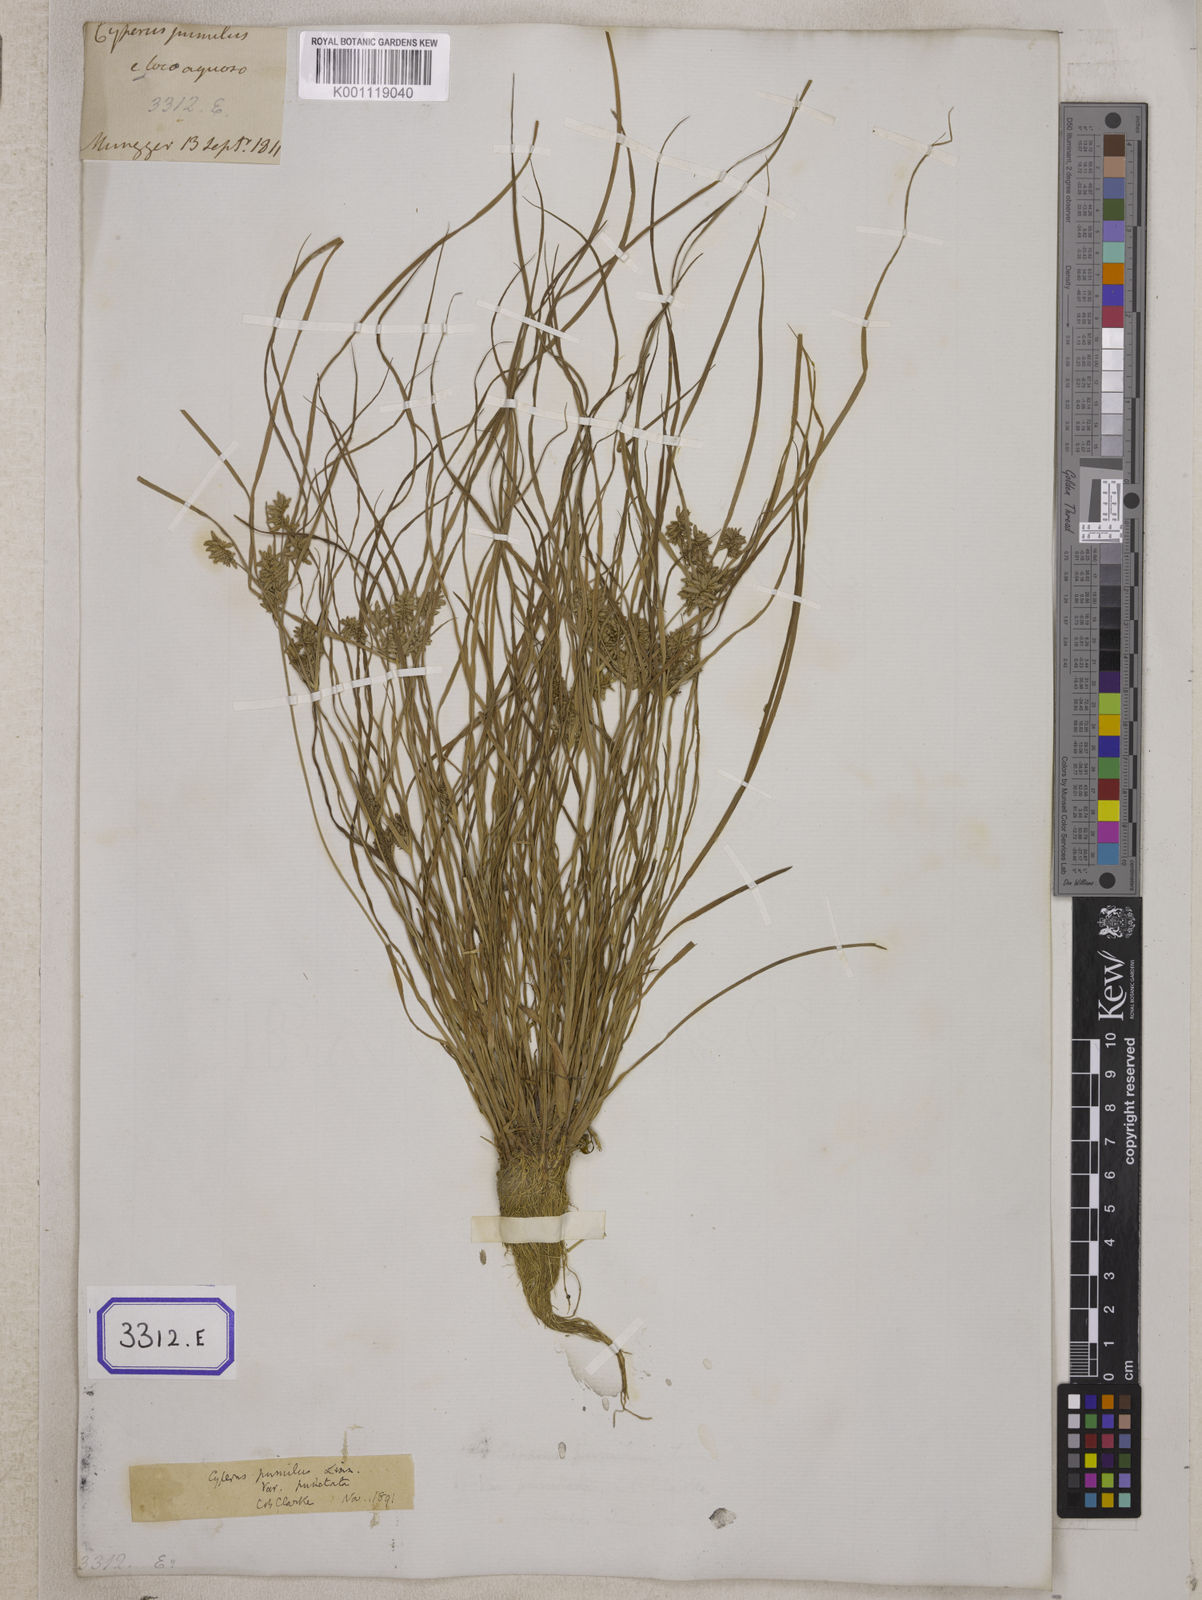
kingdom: Plantae
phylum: Tracheophyta
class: Liliopsida
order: Poales
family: Cyperaceae
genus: Cyperus
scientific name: Cyperus
